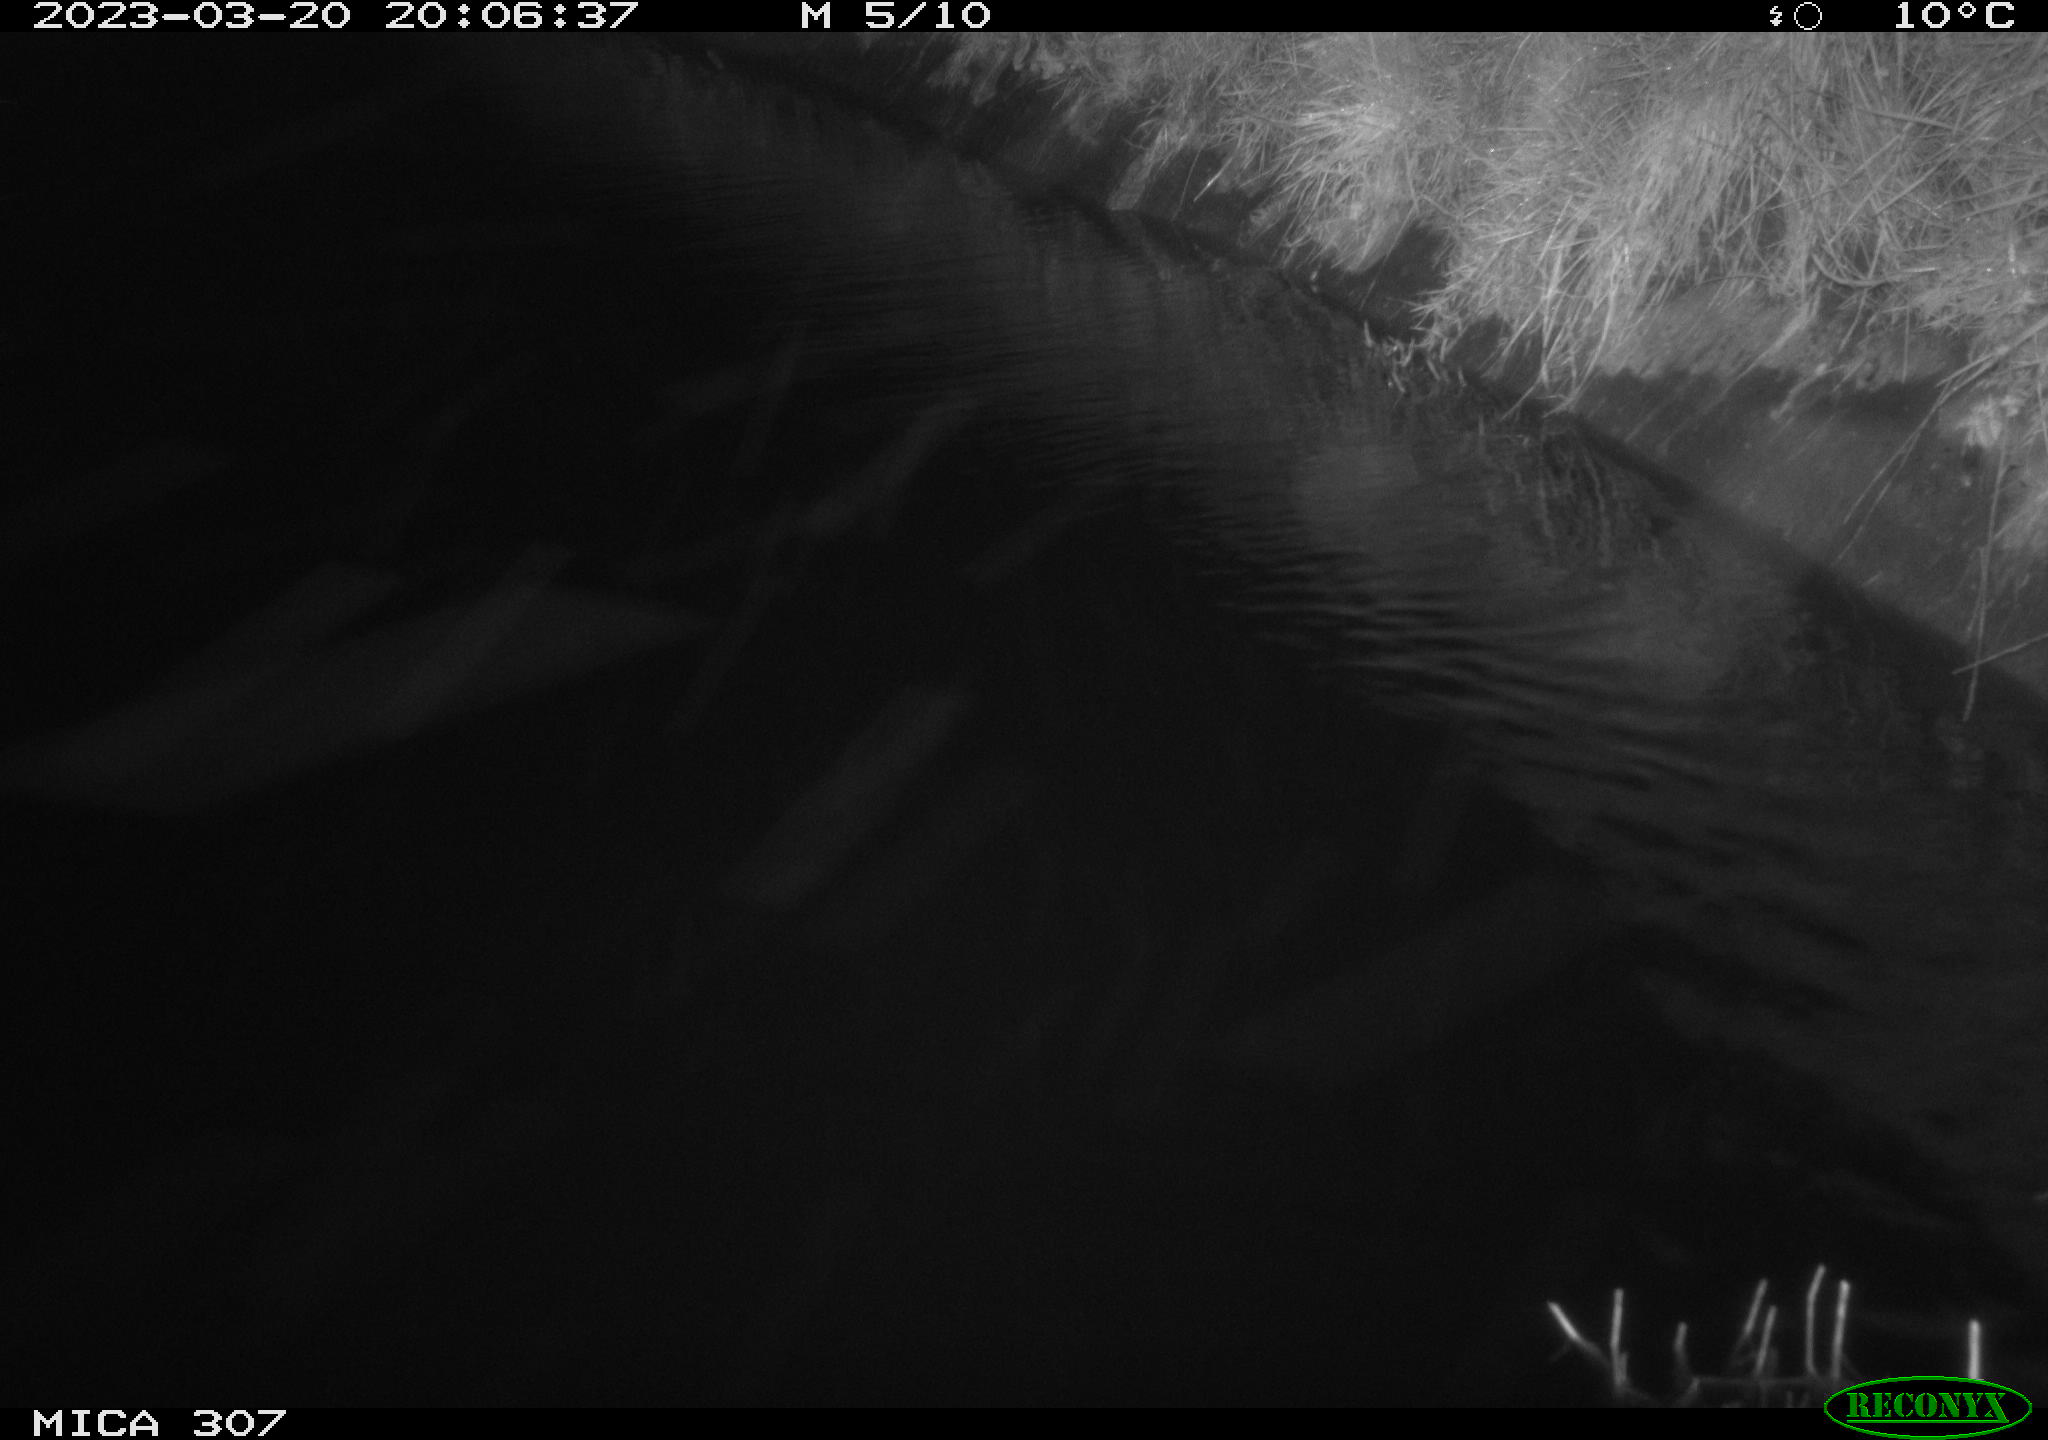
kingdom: Animalia
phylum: Chordata
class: Mammalia
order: Rodentia
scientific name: Rodentia
